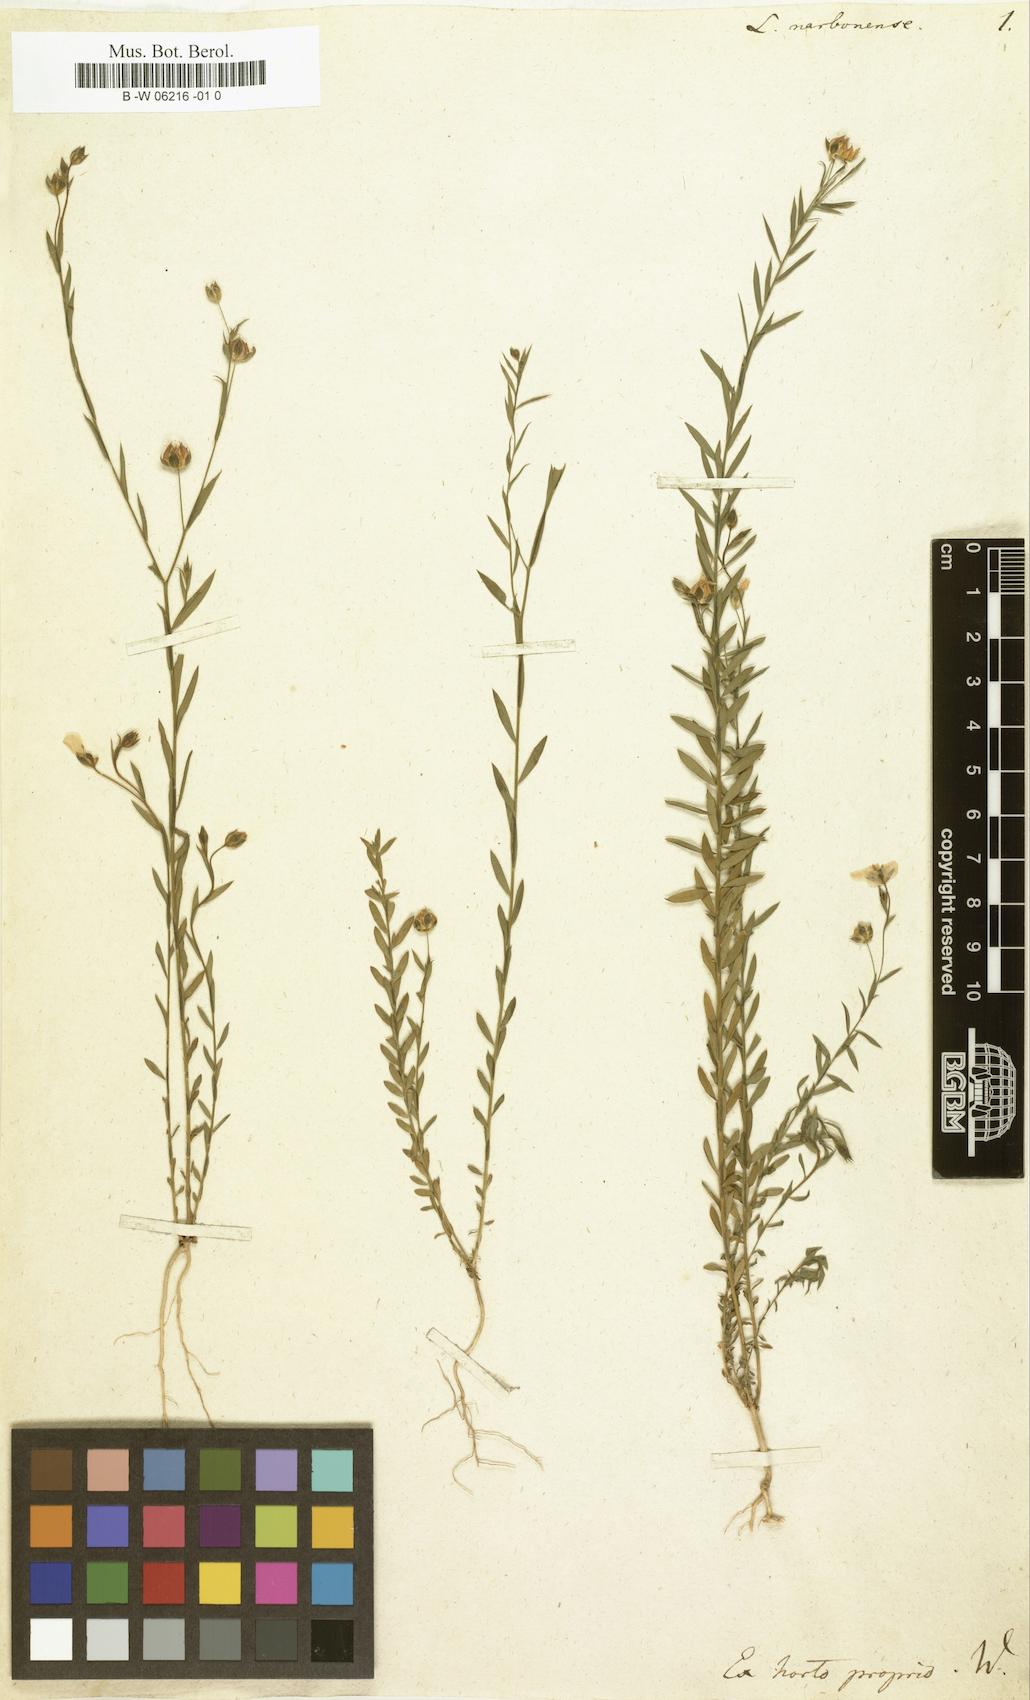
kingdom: Plantae
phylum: Tracheophyta
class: Magnoliopsida
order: Malpighiales
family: Linaceae
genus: Linum
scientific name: Linum narbonense
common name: Flax
